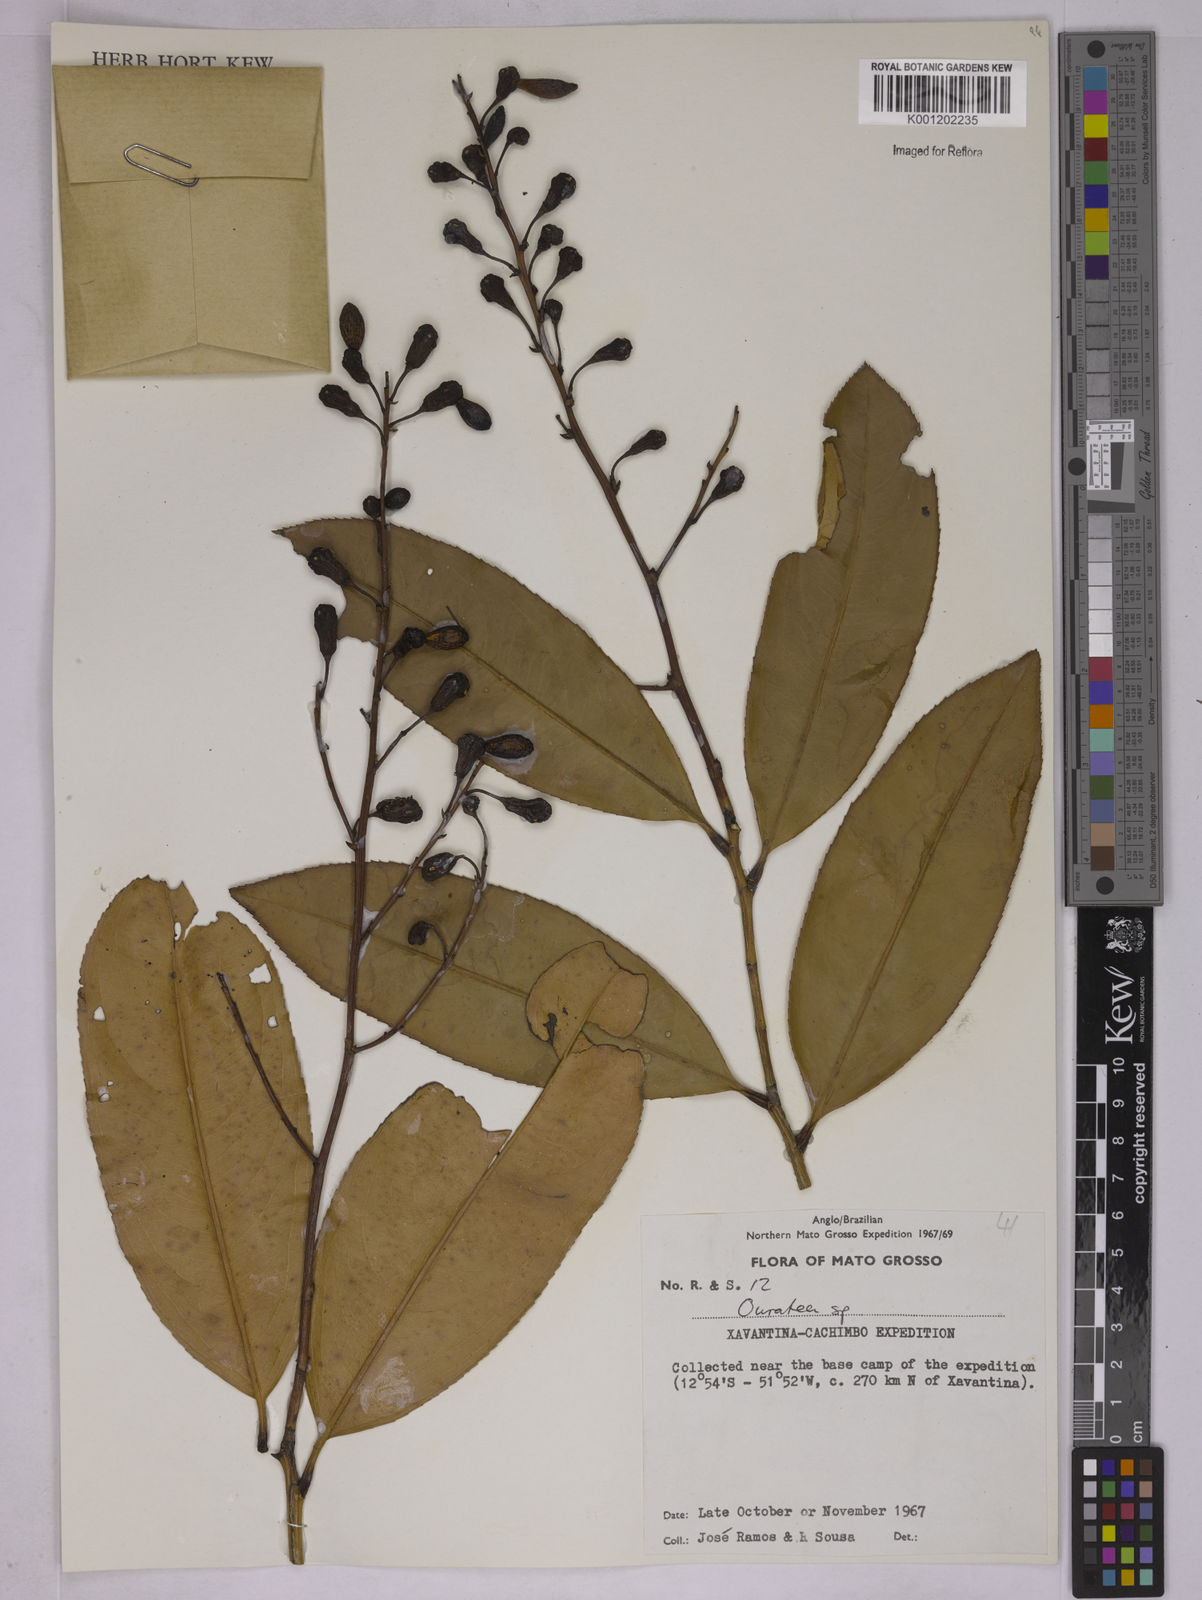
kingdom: Plantae
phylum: Tracheophyta
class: Magnoliopsida
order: Malpighiales
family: Ochnaceae
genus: Ouratea
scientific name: Ouratea
